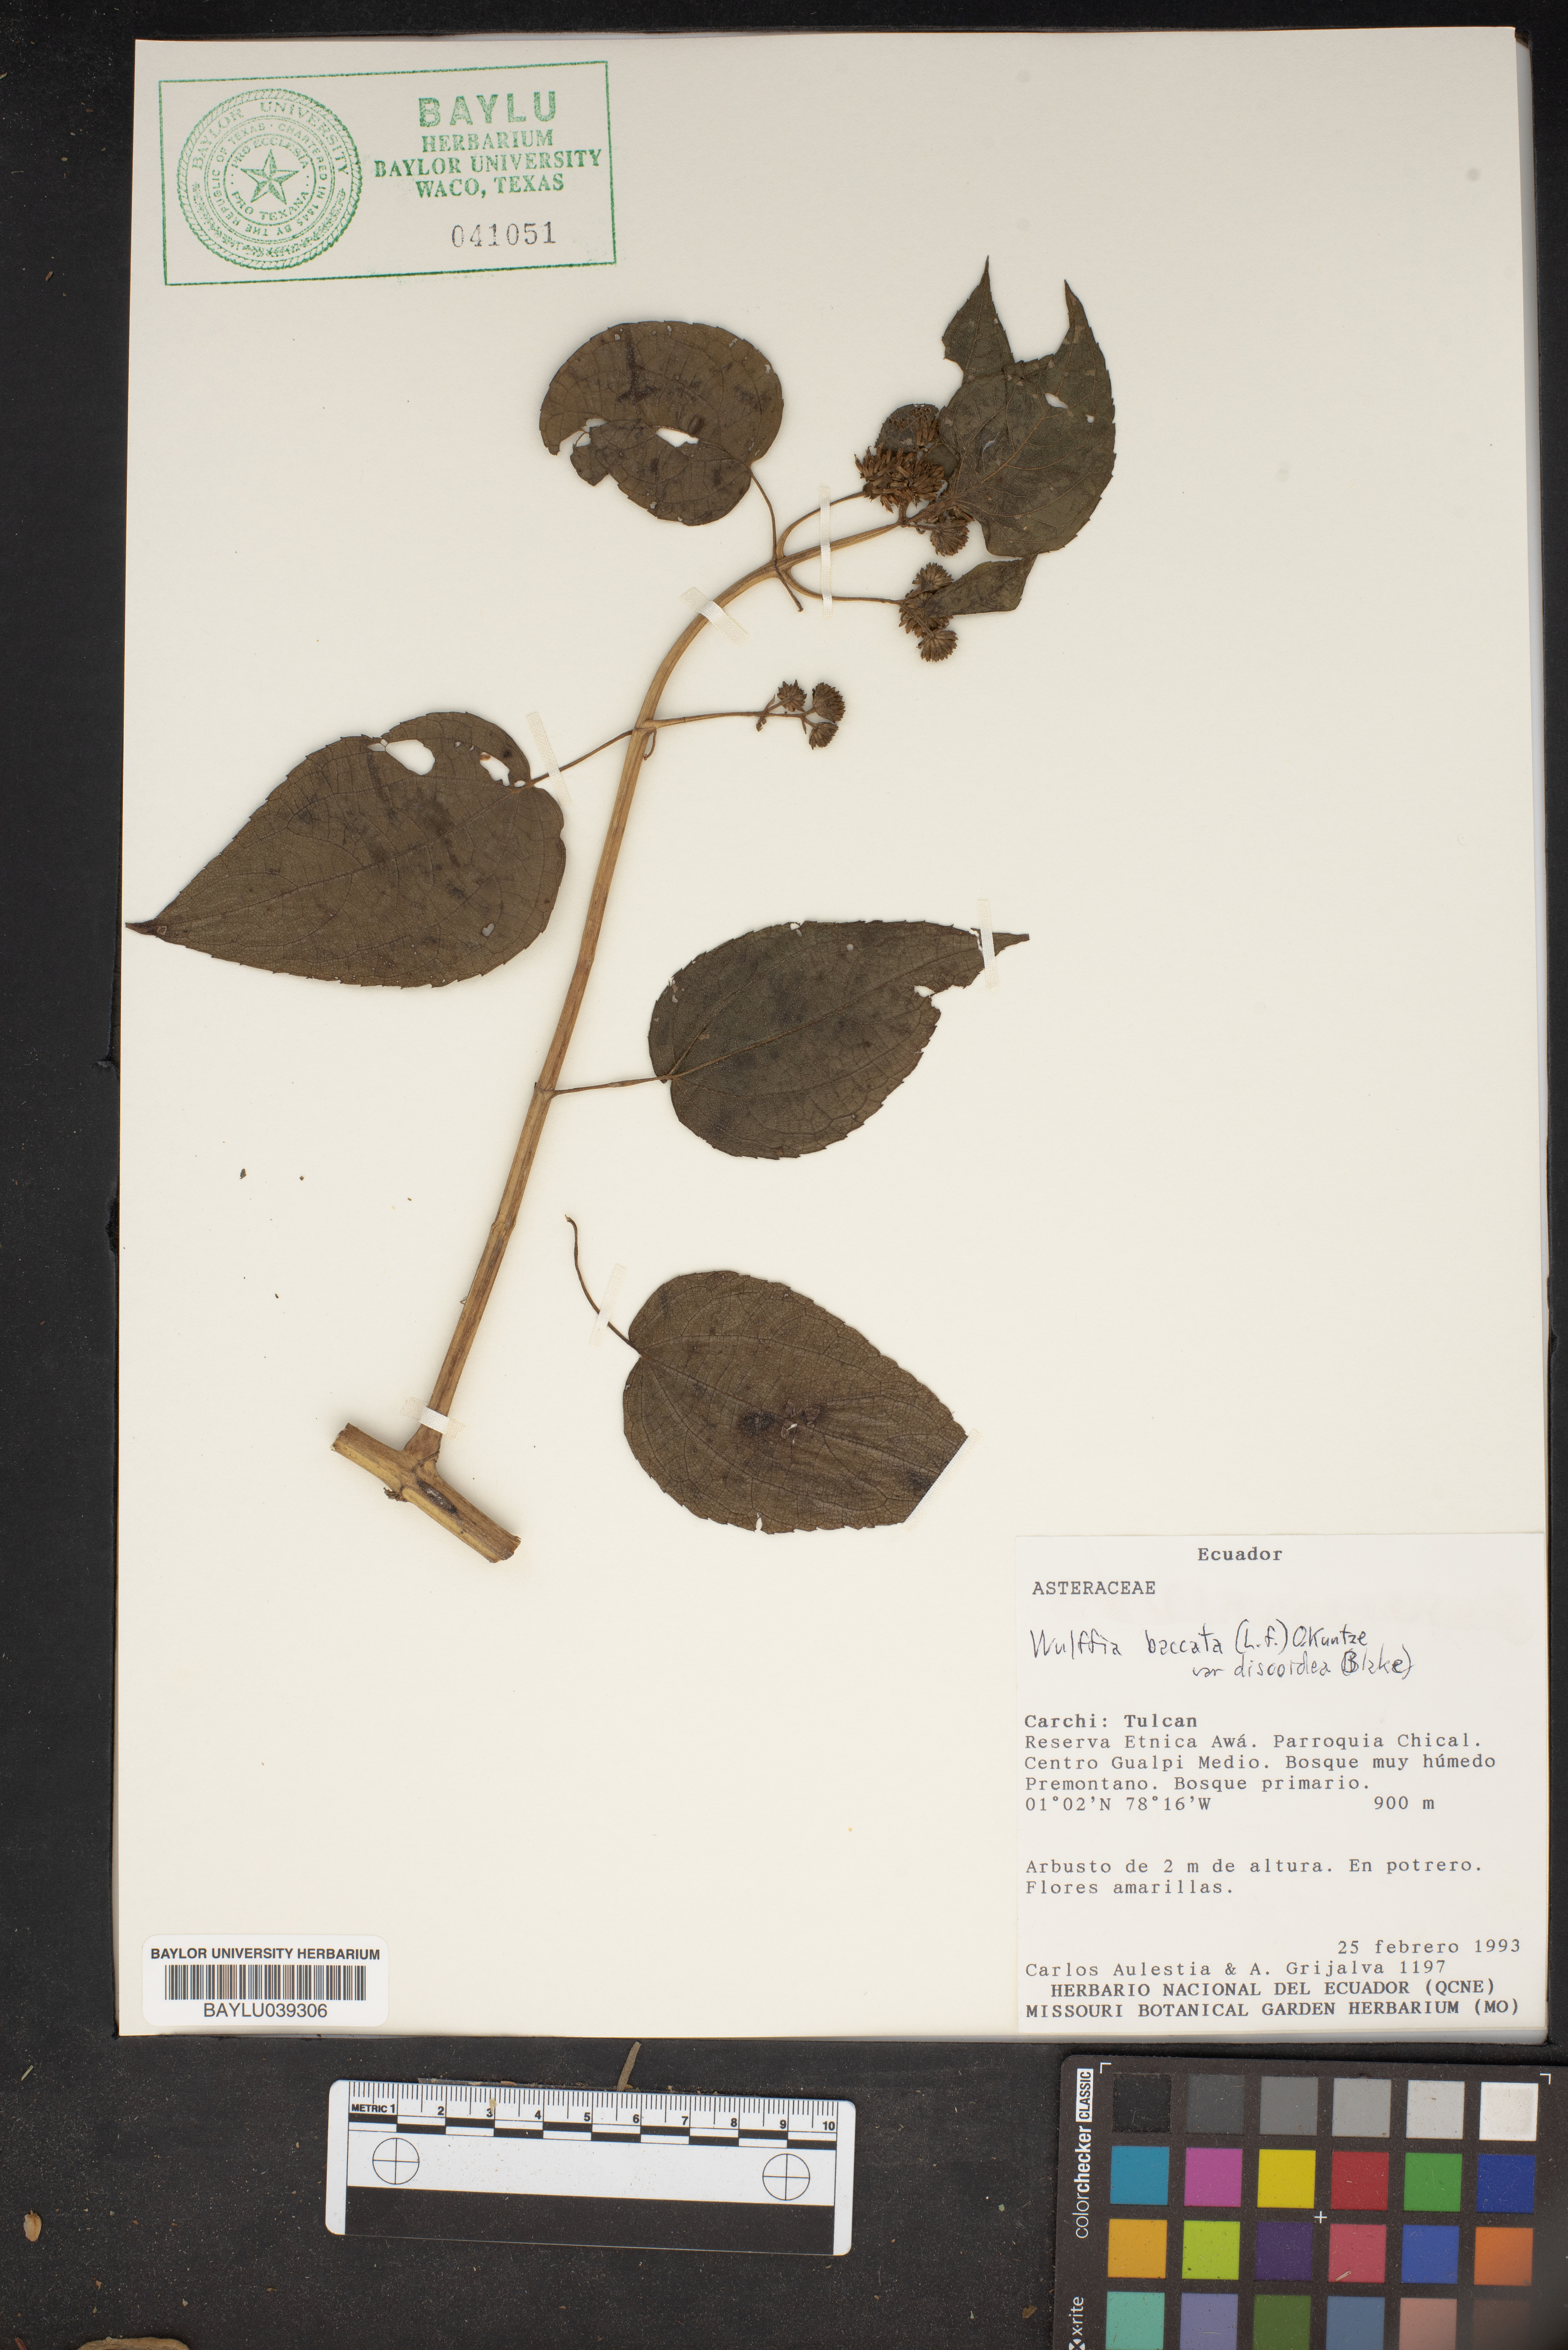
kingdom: Plantae
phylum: Tracheophyta
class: Magnoliopsida
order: Asterales
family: Asteraceae
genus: Tilesia
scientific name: Tilesia baccata
